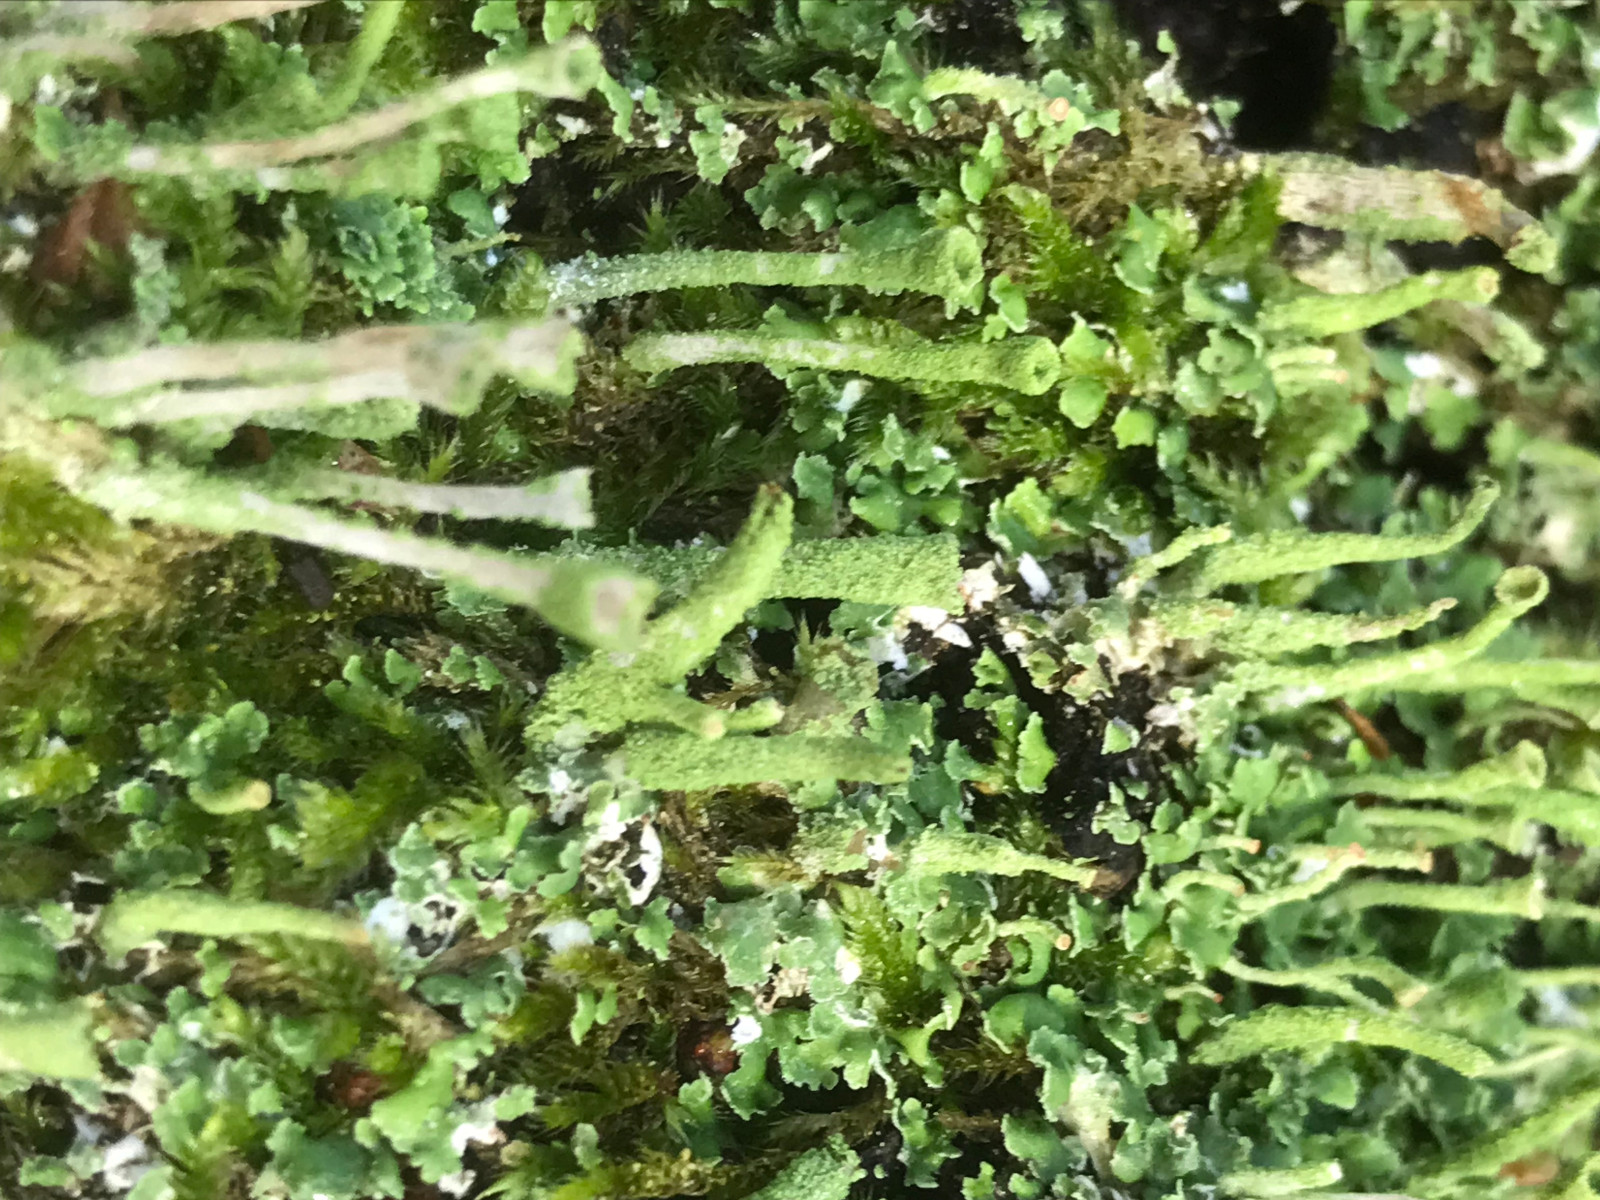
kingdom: Fungi
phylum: Ascomycota
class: Lecanoromycetes
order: Lecanorales
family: Cladoniaceae
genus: Cladonia
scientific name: Cladonia fimbriata
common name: bleggrøn bægerlav
